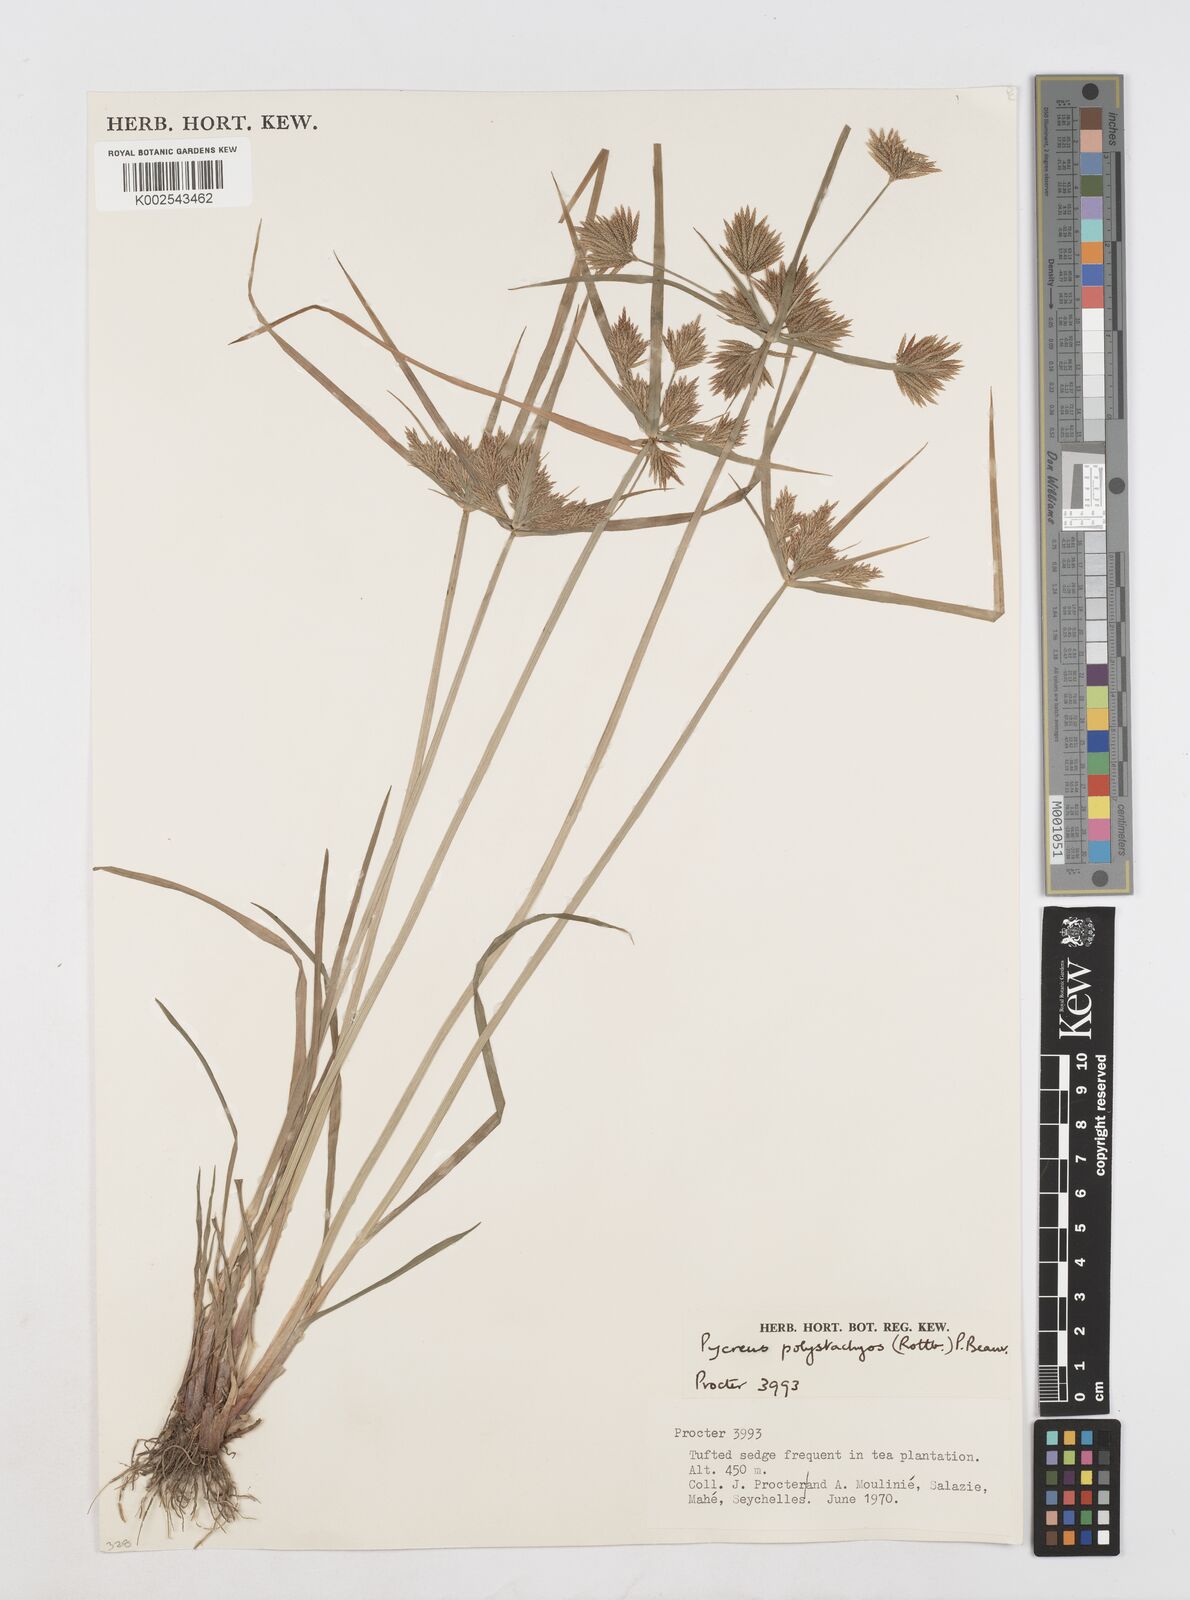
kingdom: Plantae
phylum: Tracheophyta
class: Liliopsida
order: Poales
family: Cyperaceae
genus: Cyperus
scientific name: Cyperus polystachyos
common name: Bunchy flat sedge
